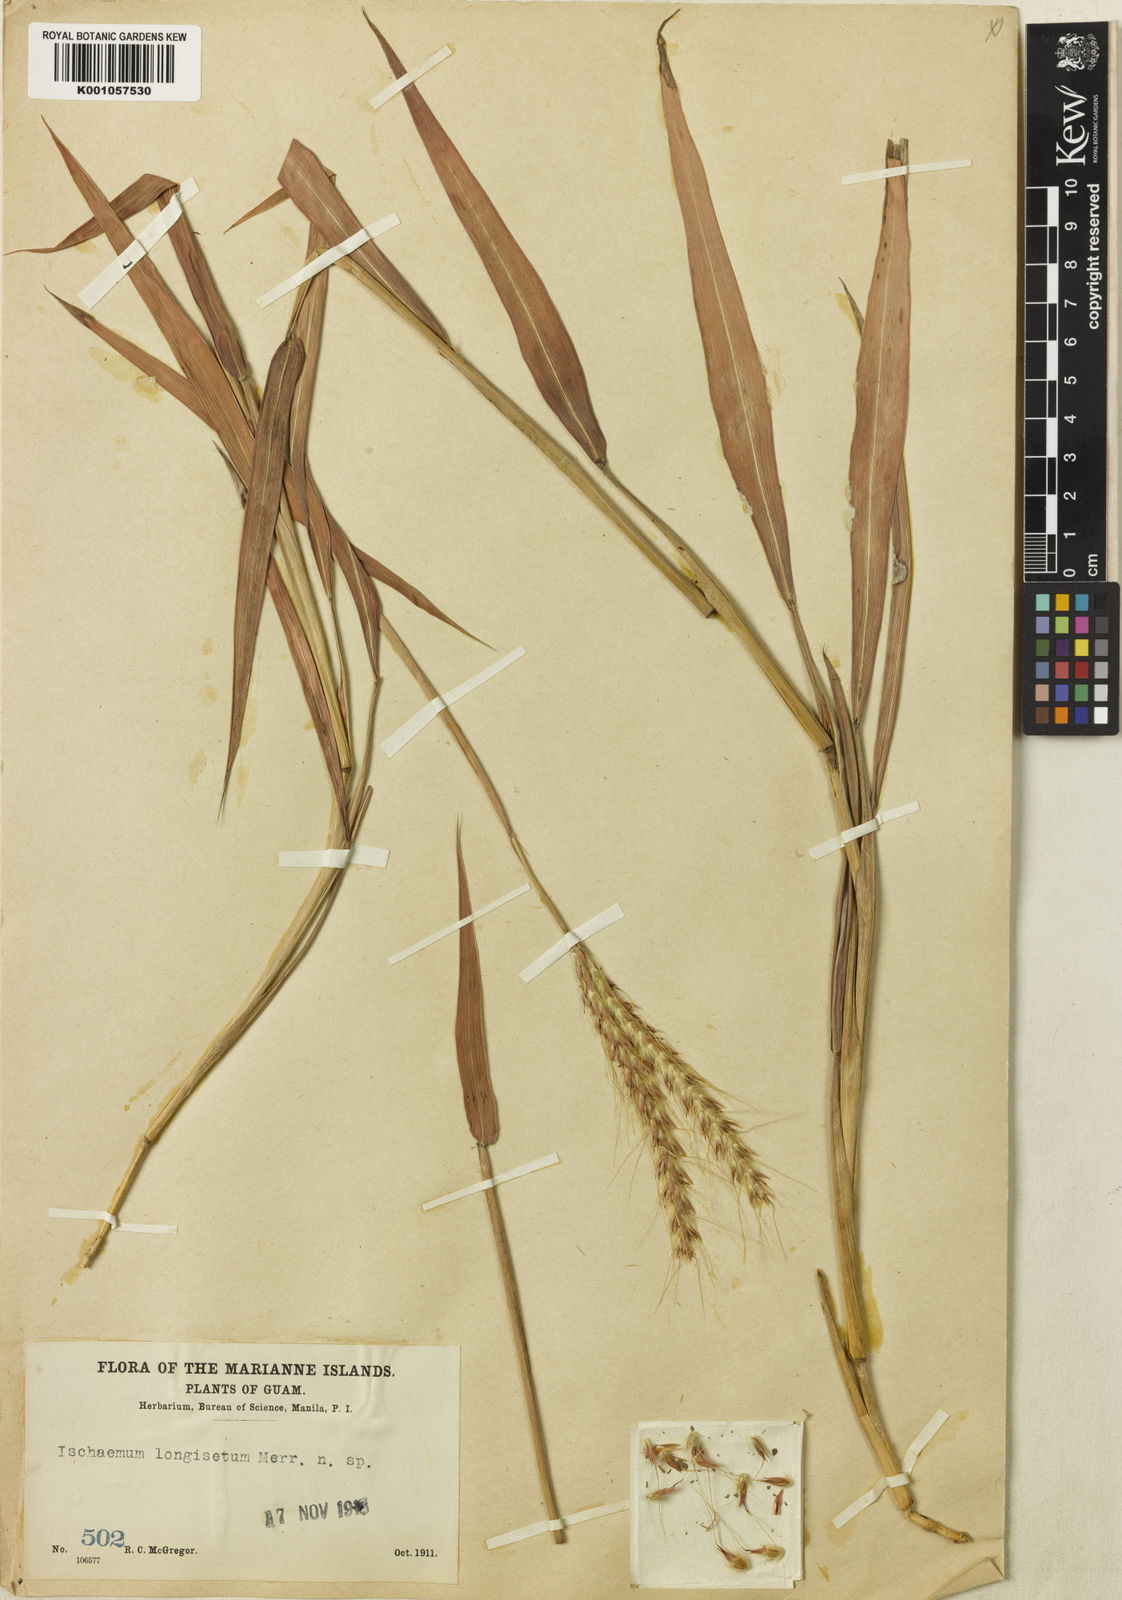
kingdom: Plantae
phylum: Tracheophyta
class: Liliopsida
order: Poales
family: Poaceae
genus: Ischaemum
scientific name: Ischaemum longisetum
